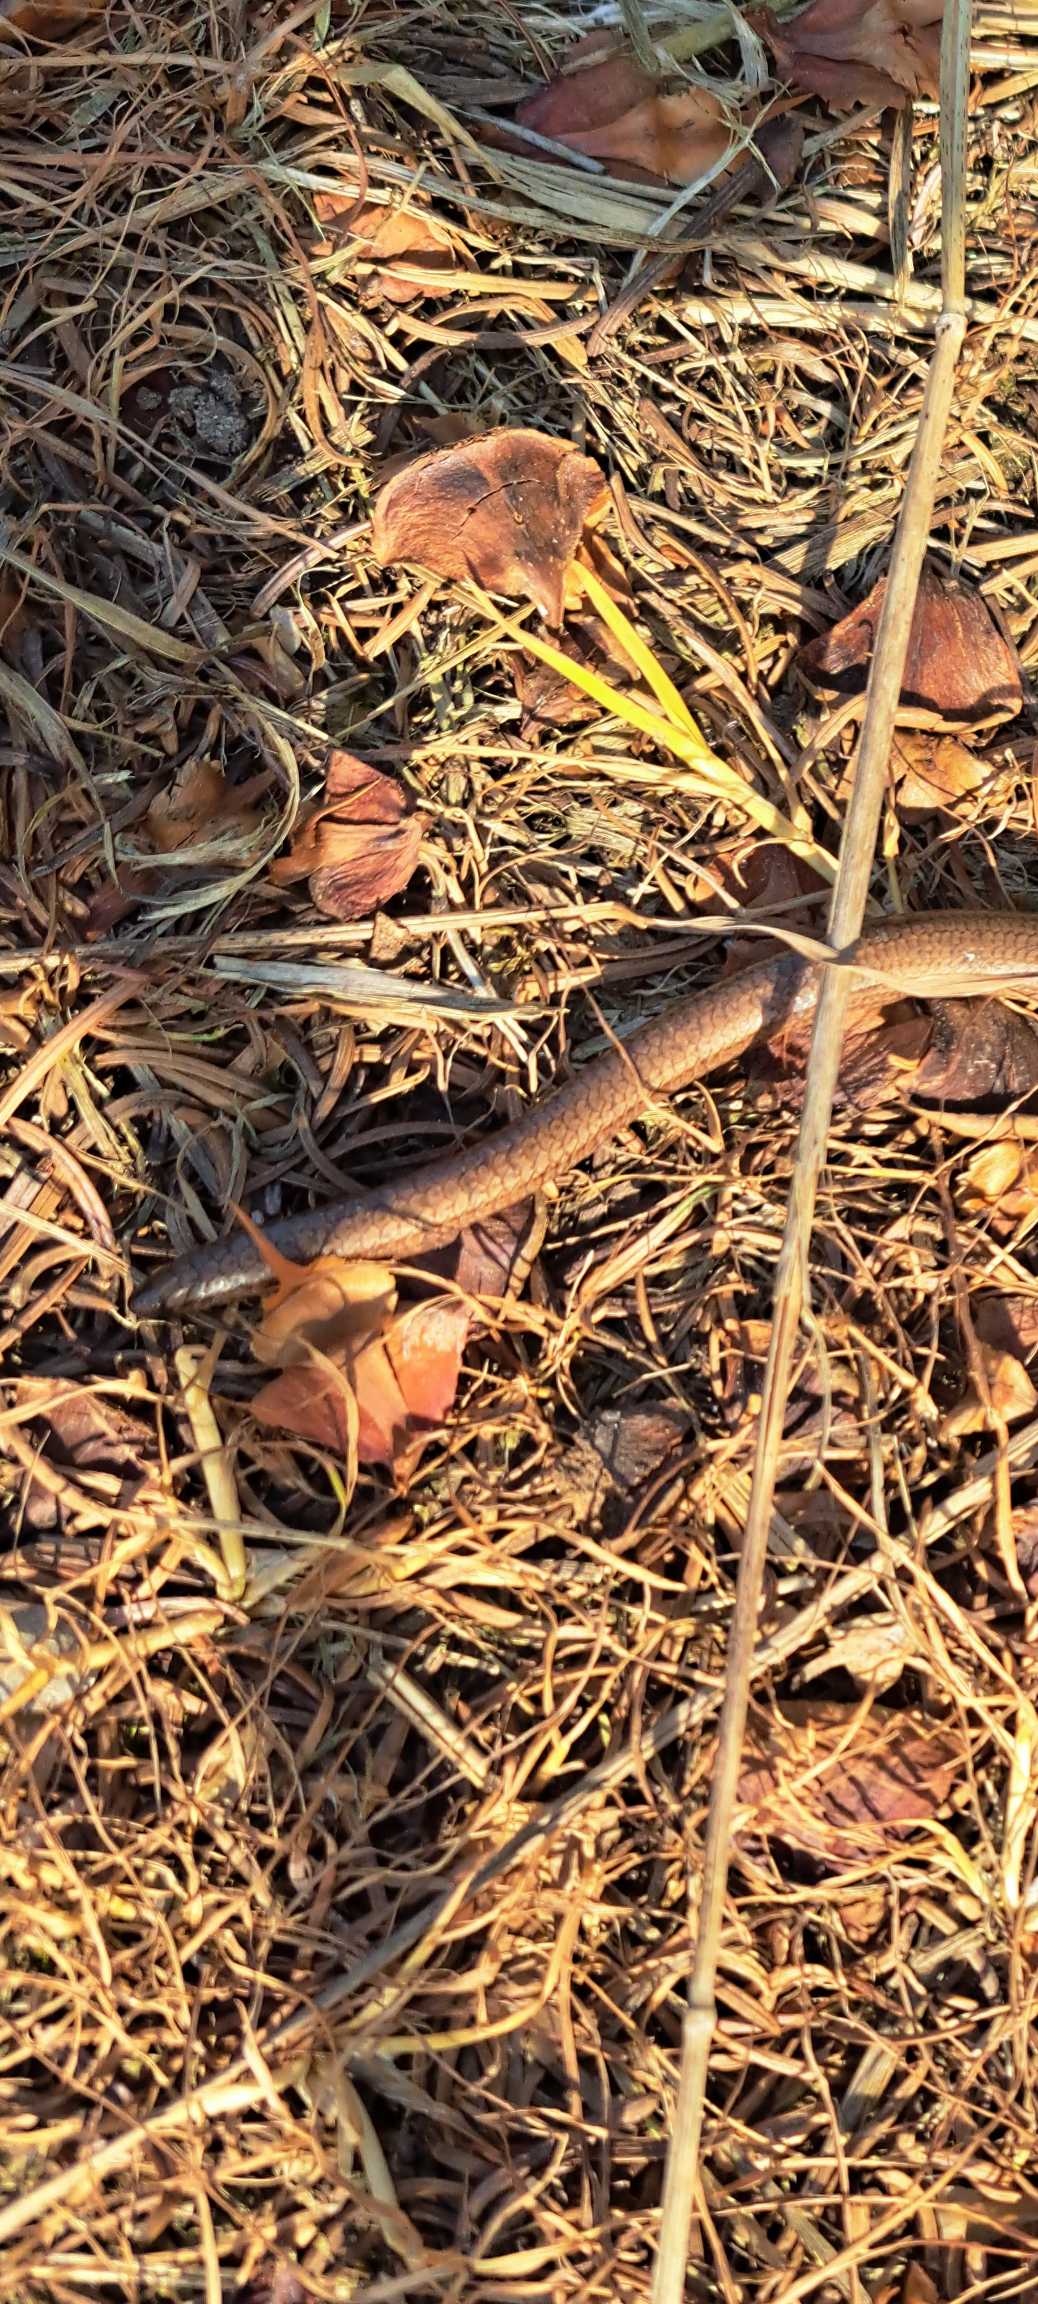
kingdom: Animalia
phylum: Chordata
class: Squamata
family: Anguidae
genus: Anguis
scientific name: Anguis fragilis
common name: Stålorm
